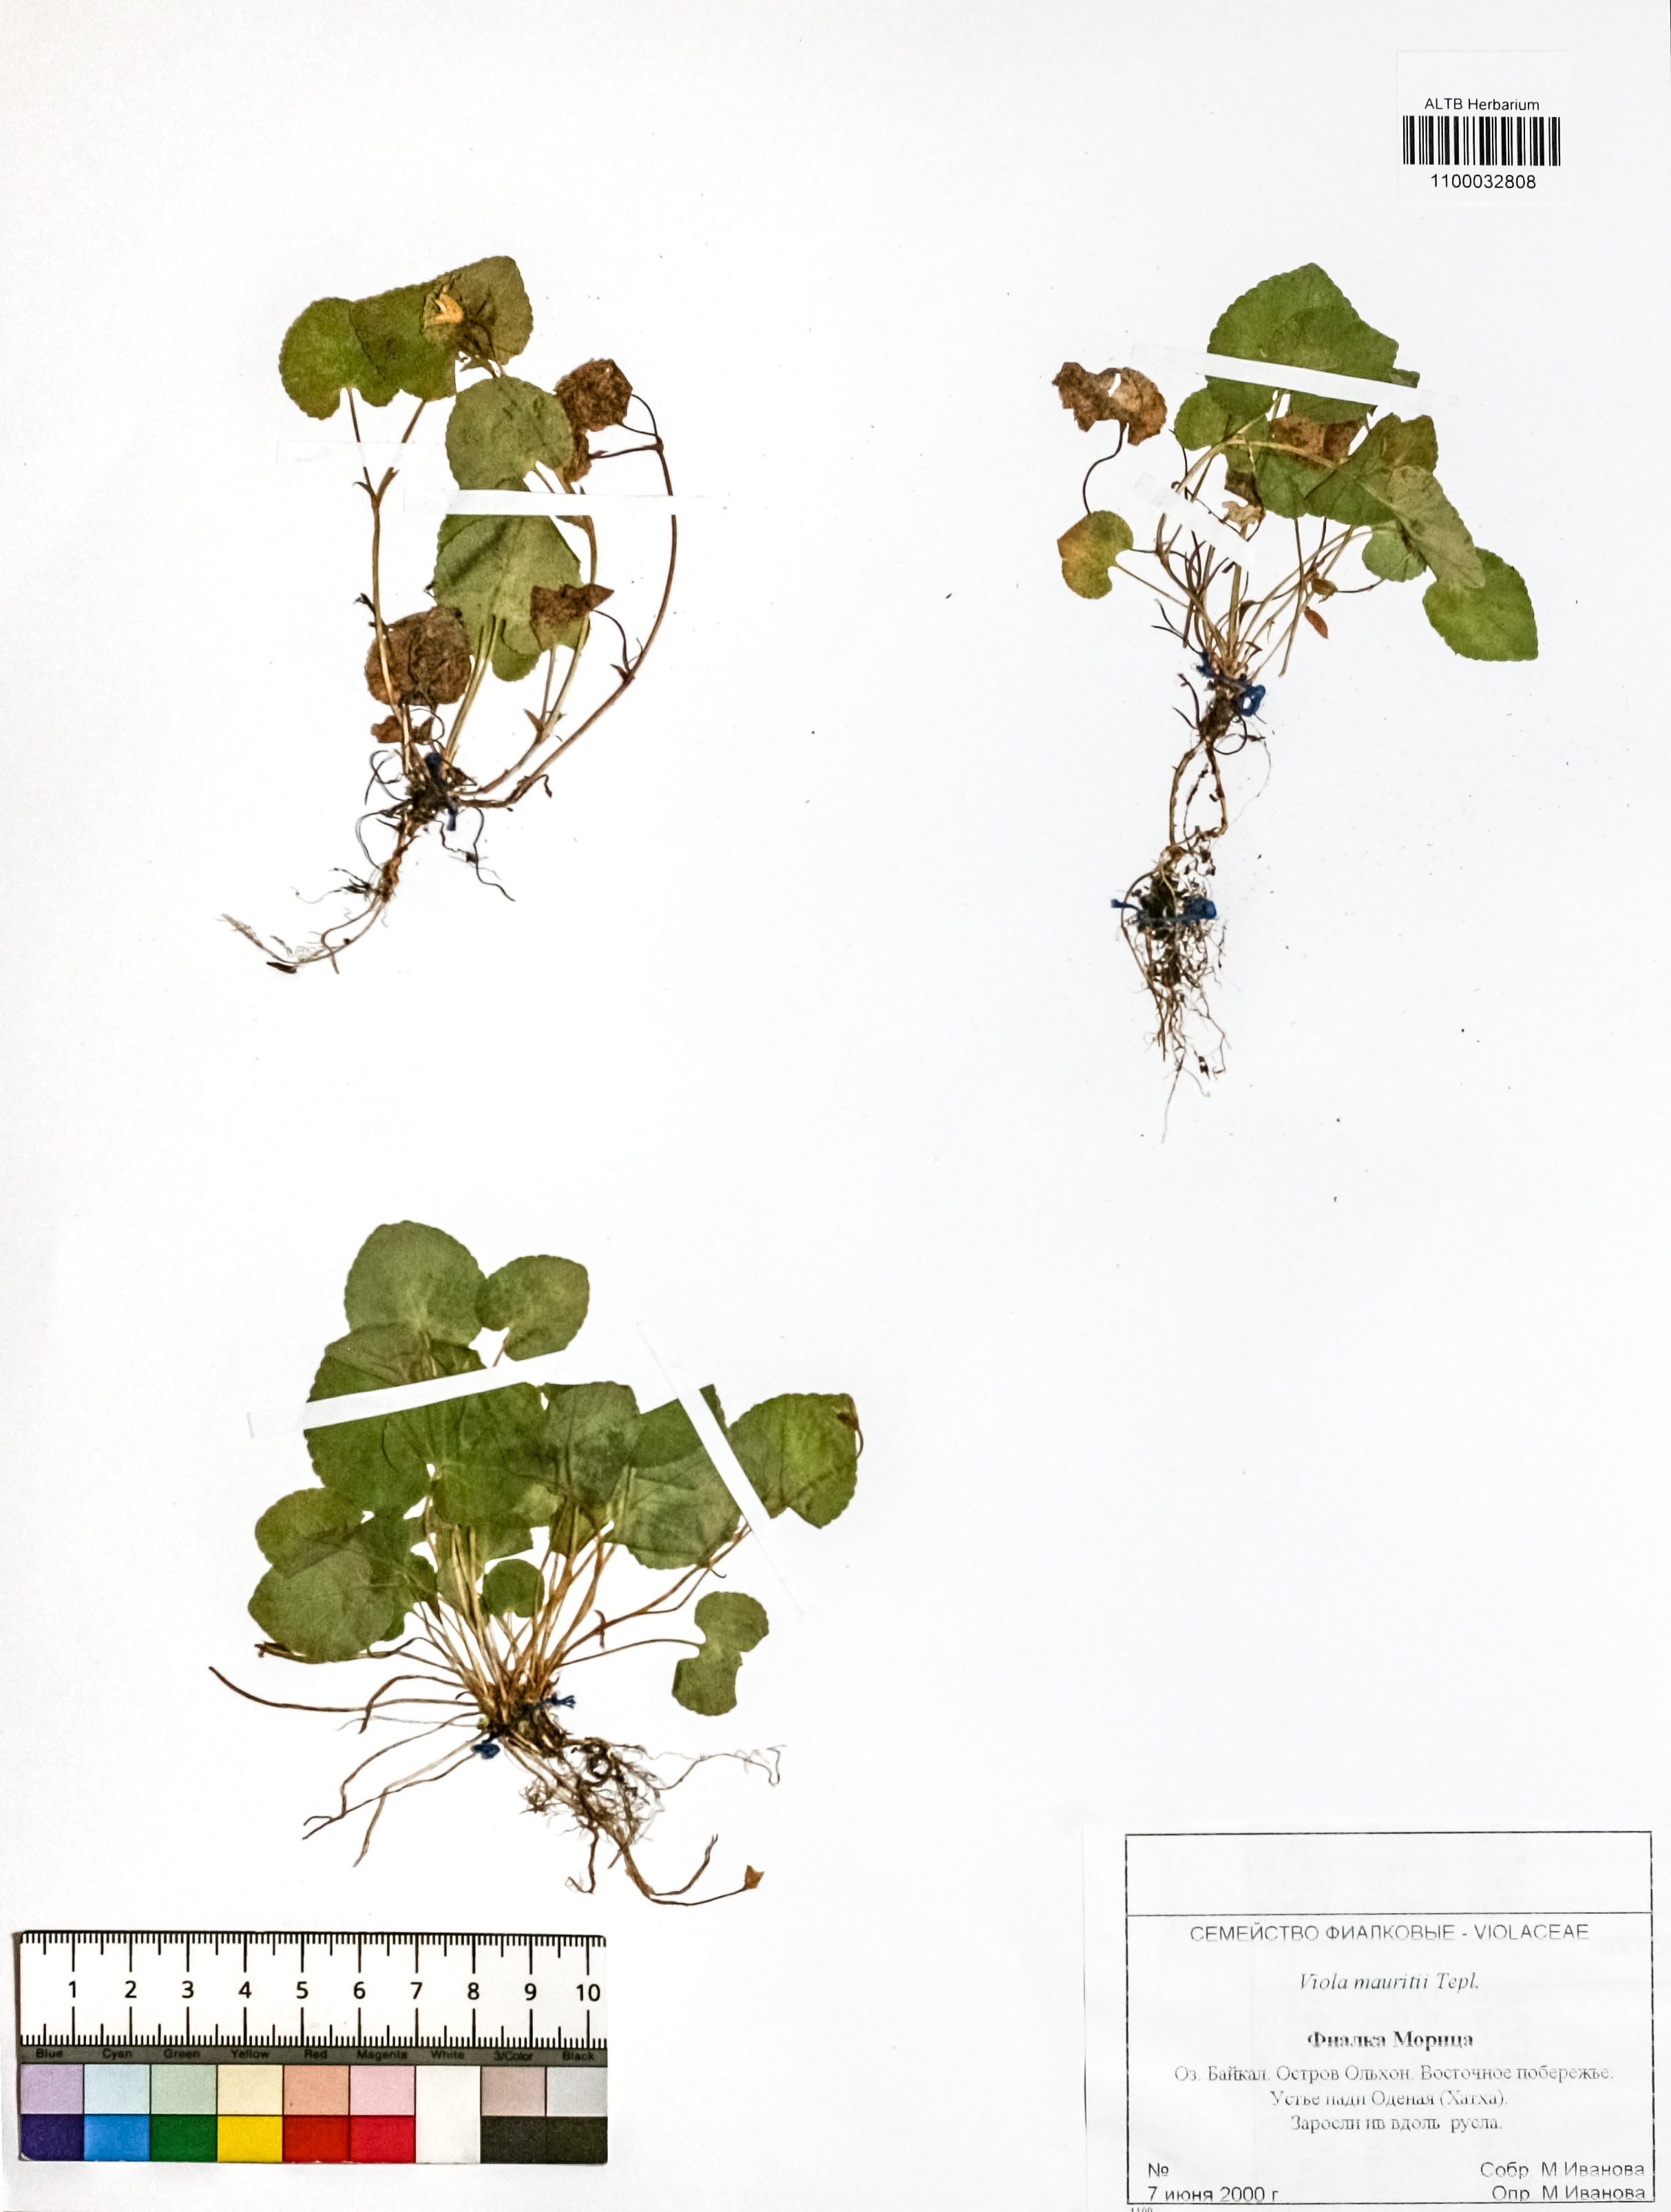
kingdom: Plantae
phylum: Tracheophyta
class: Magnoliopsida
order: Malpighiales
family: Violaceae
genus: Viola
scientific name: Viola mauritii
